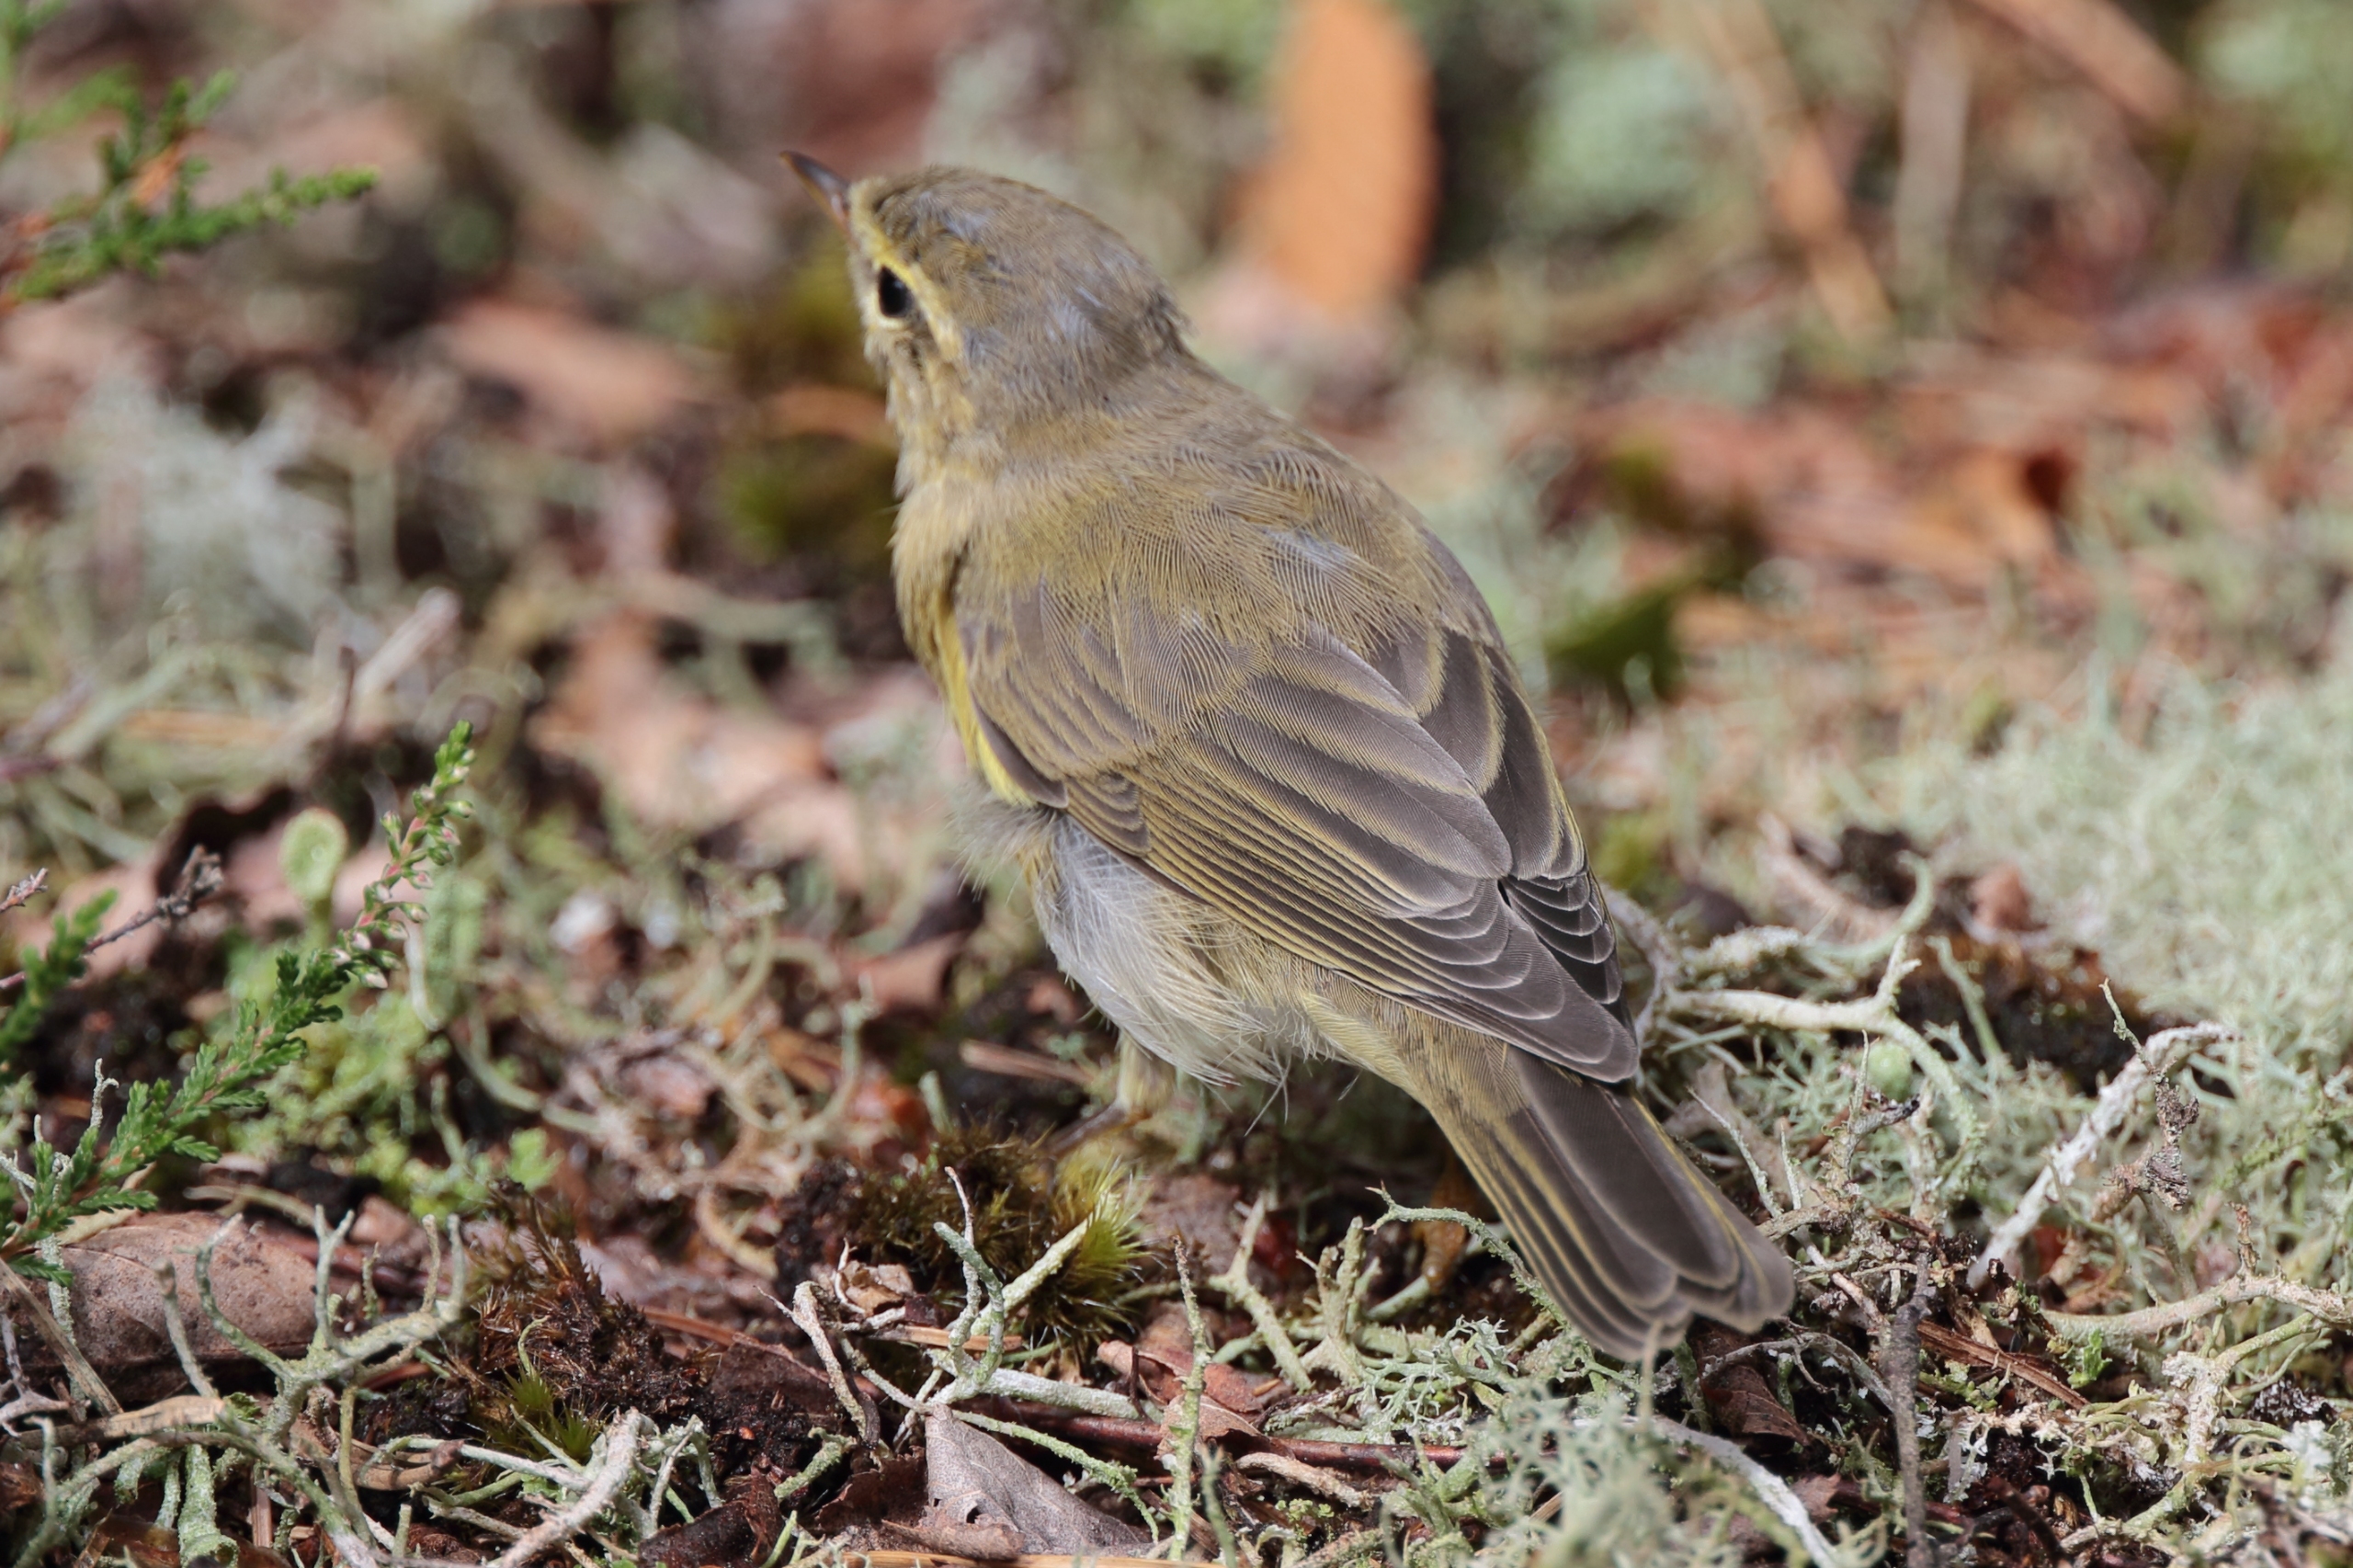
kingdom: Animalia
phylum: Chordata
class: Aves
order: Passeriformes
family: Phylloscopidae
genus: Phylloscopus
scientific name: Phylloscopus trochilus
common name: Løvsanger
